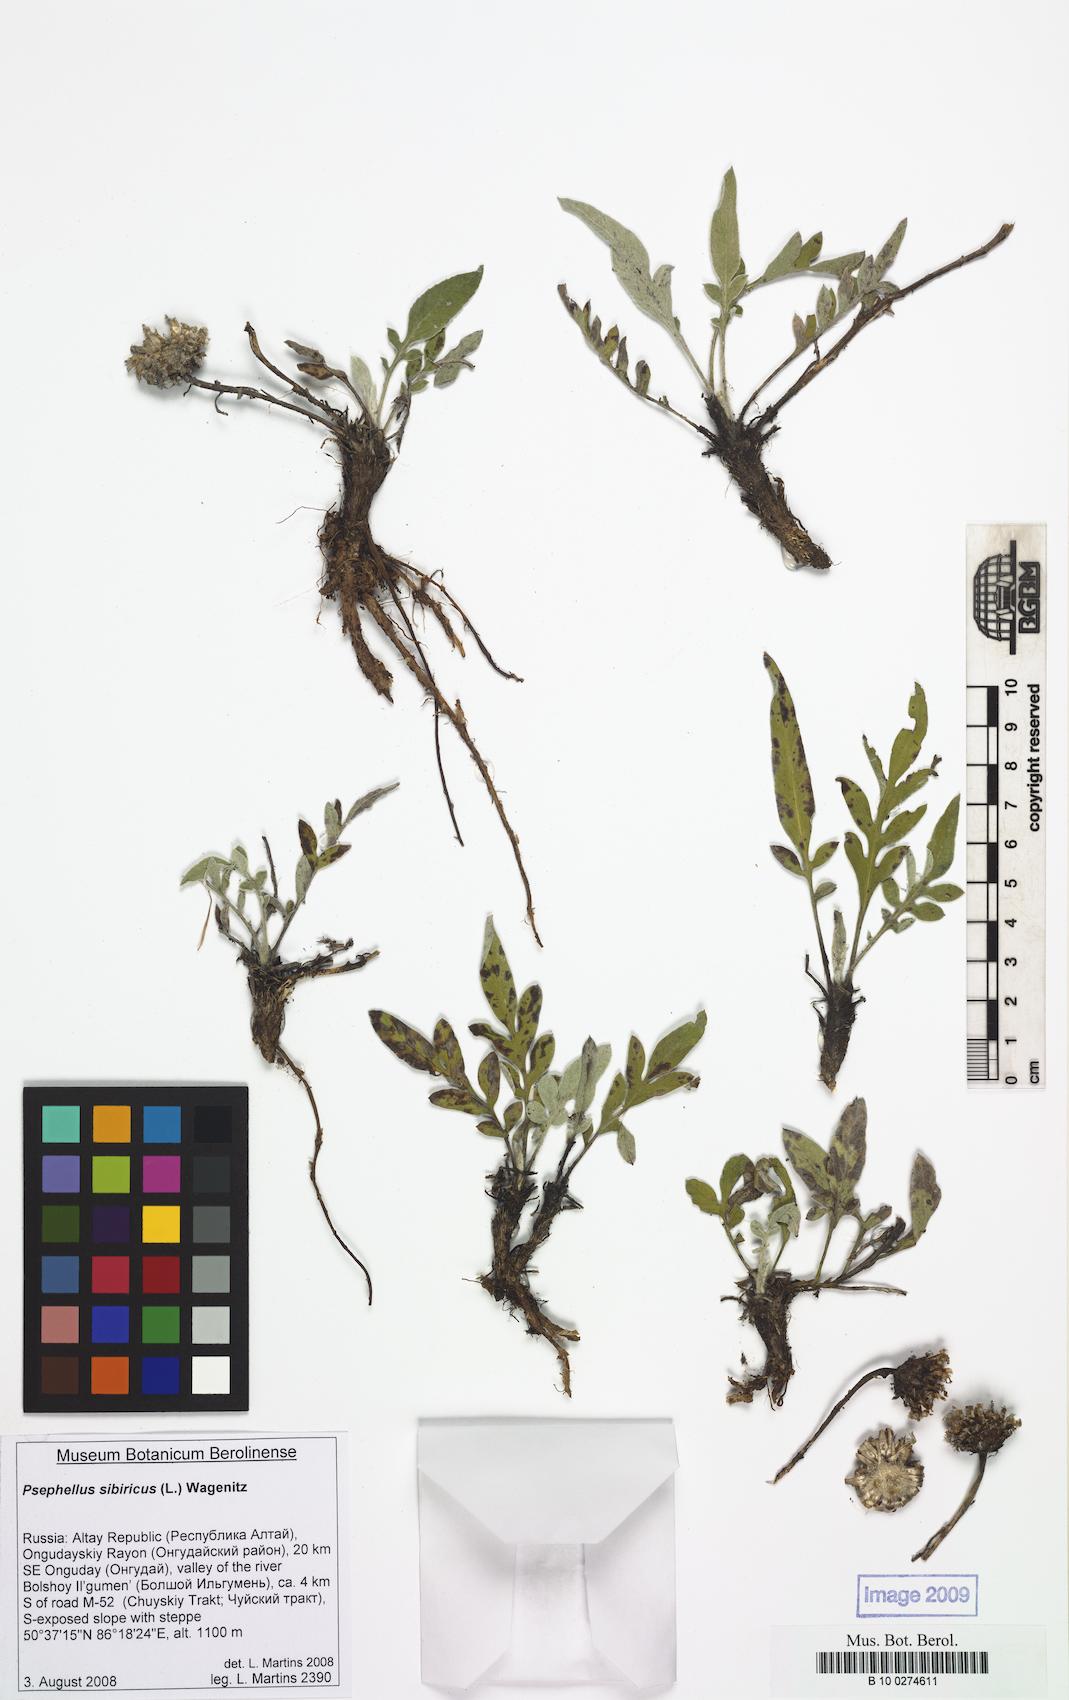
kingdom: Plantae
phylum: Tracheophyta
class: Magnoliopsida
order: Asterales
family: Asteraceae
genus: Psephellus
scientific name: Psephellus sibiricus
